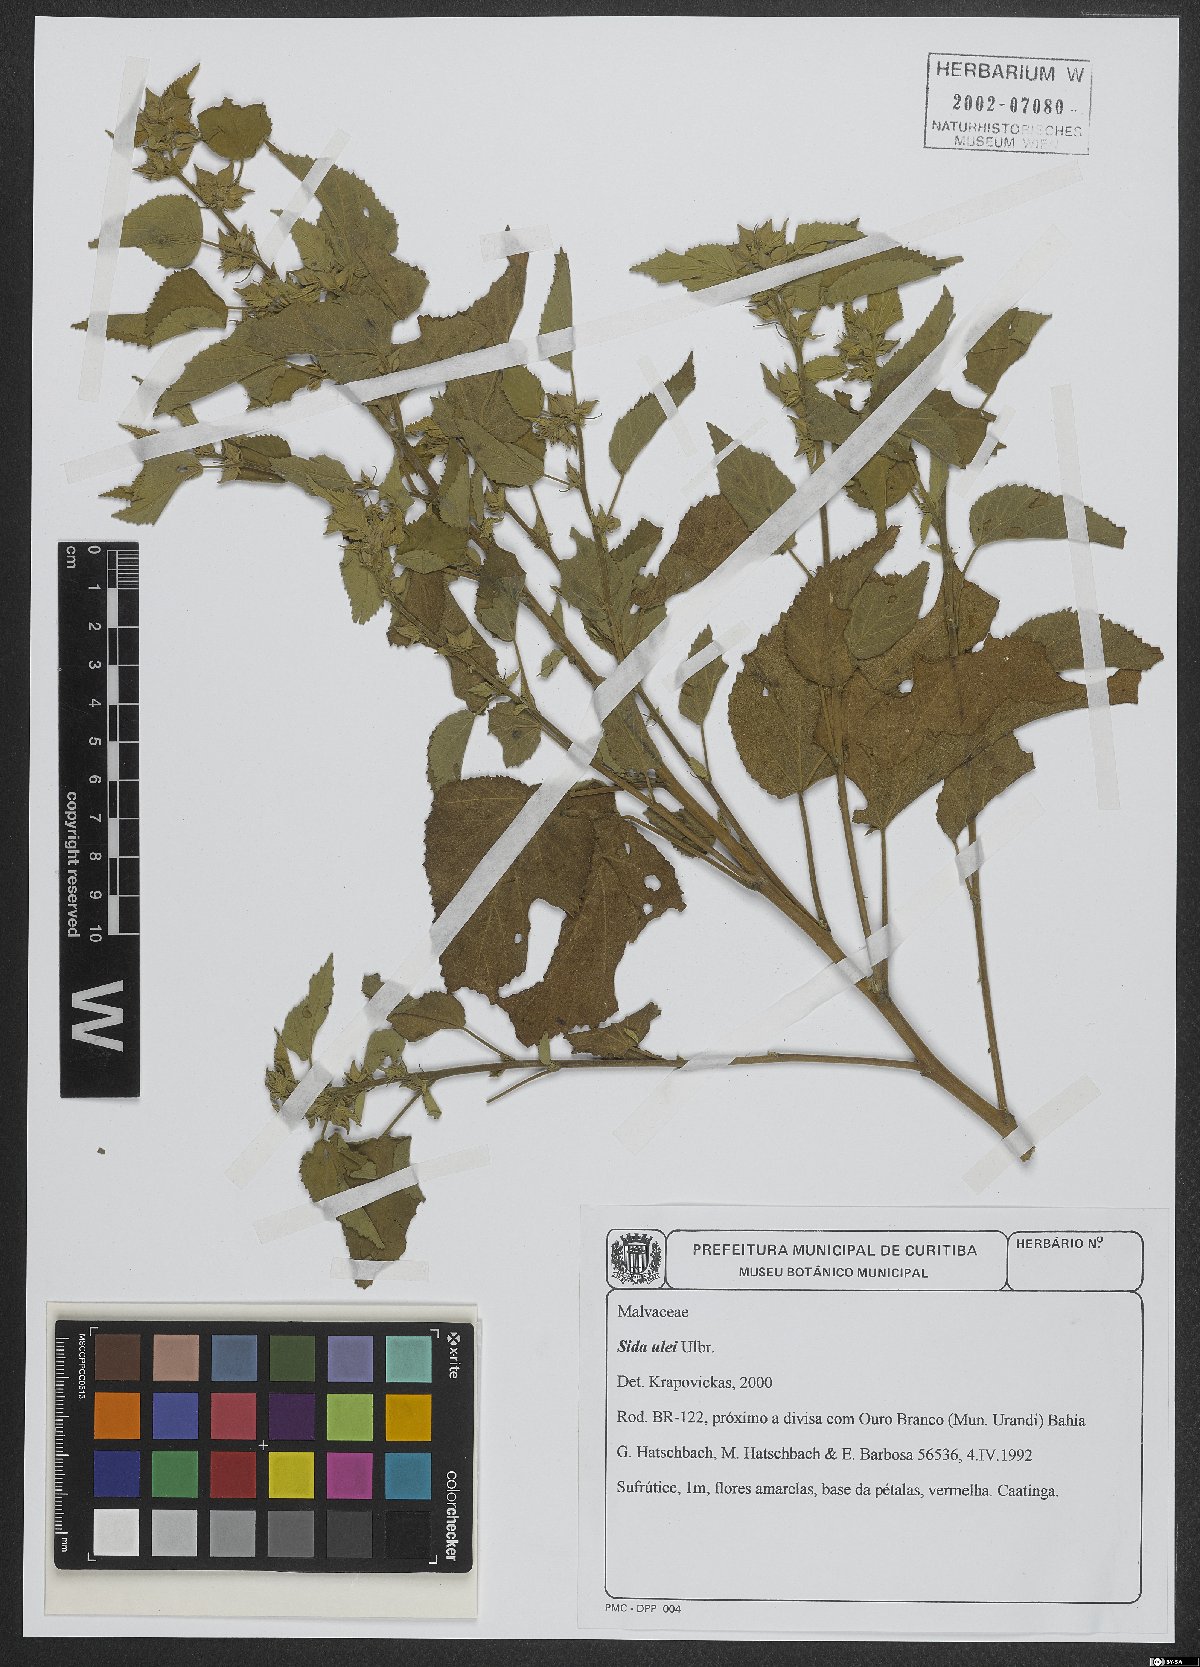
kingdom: Plantae
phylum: Tracheophyta
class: Magnoliopsida
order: Malvales
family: Malvaceae
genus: Sida
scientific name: Sida ulei
